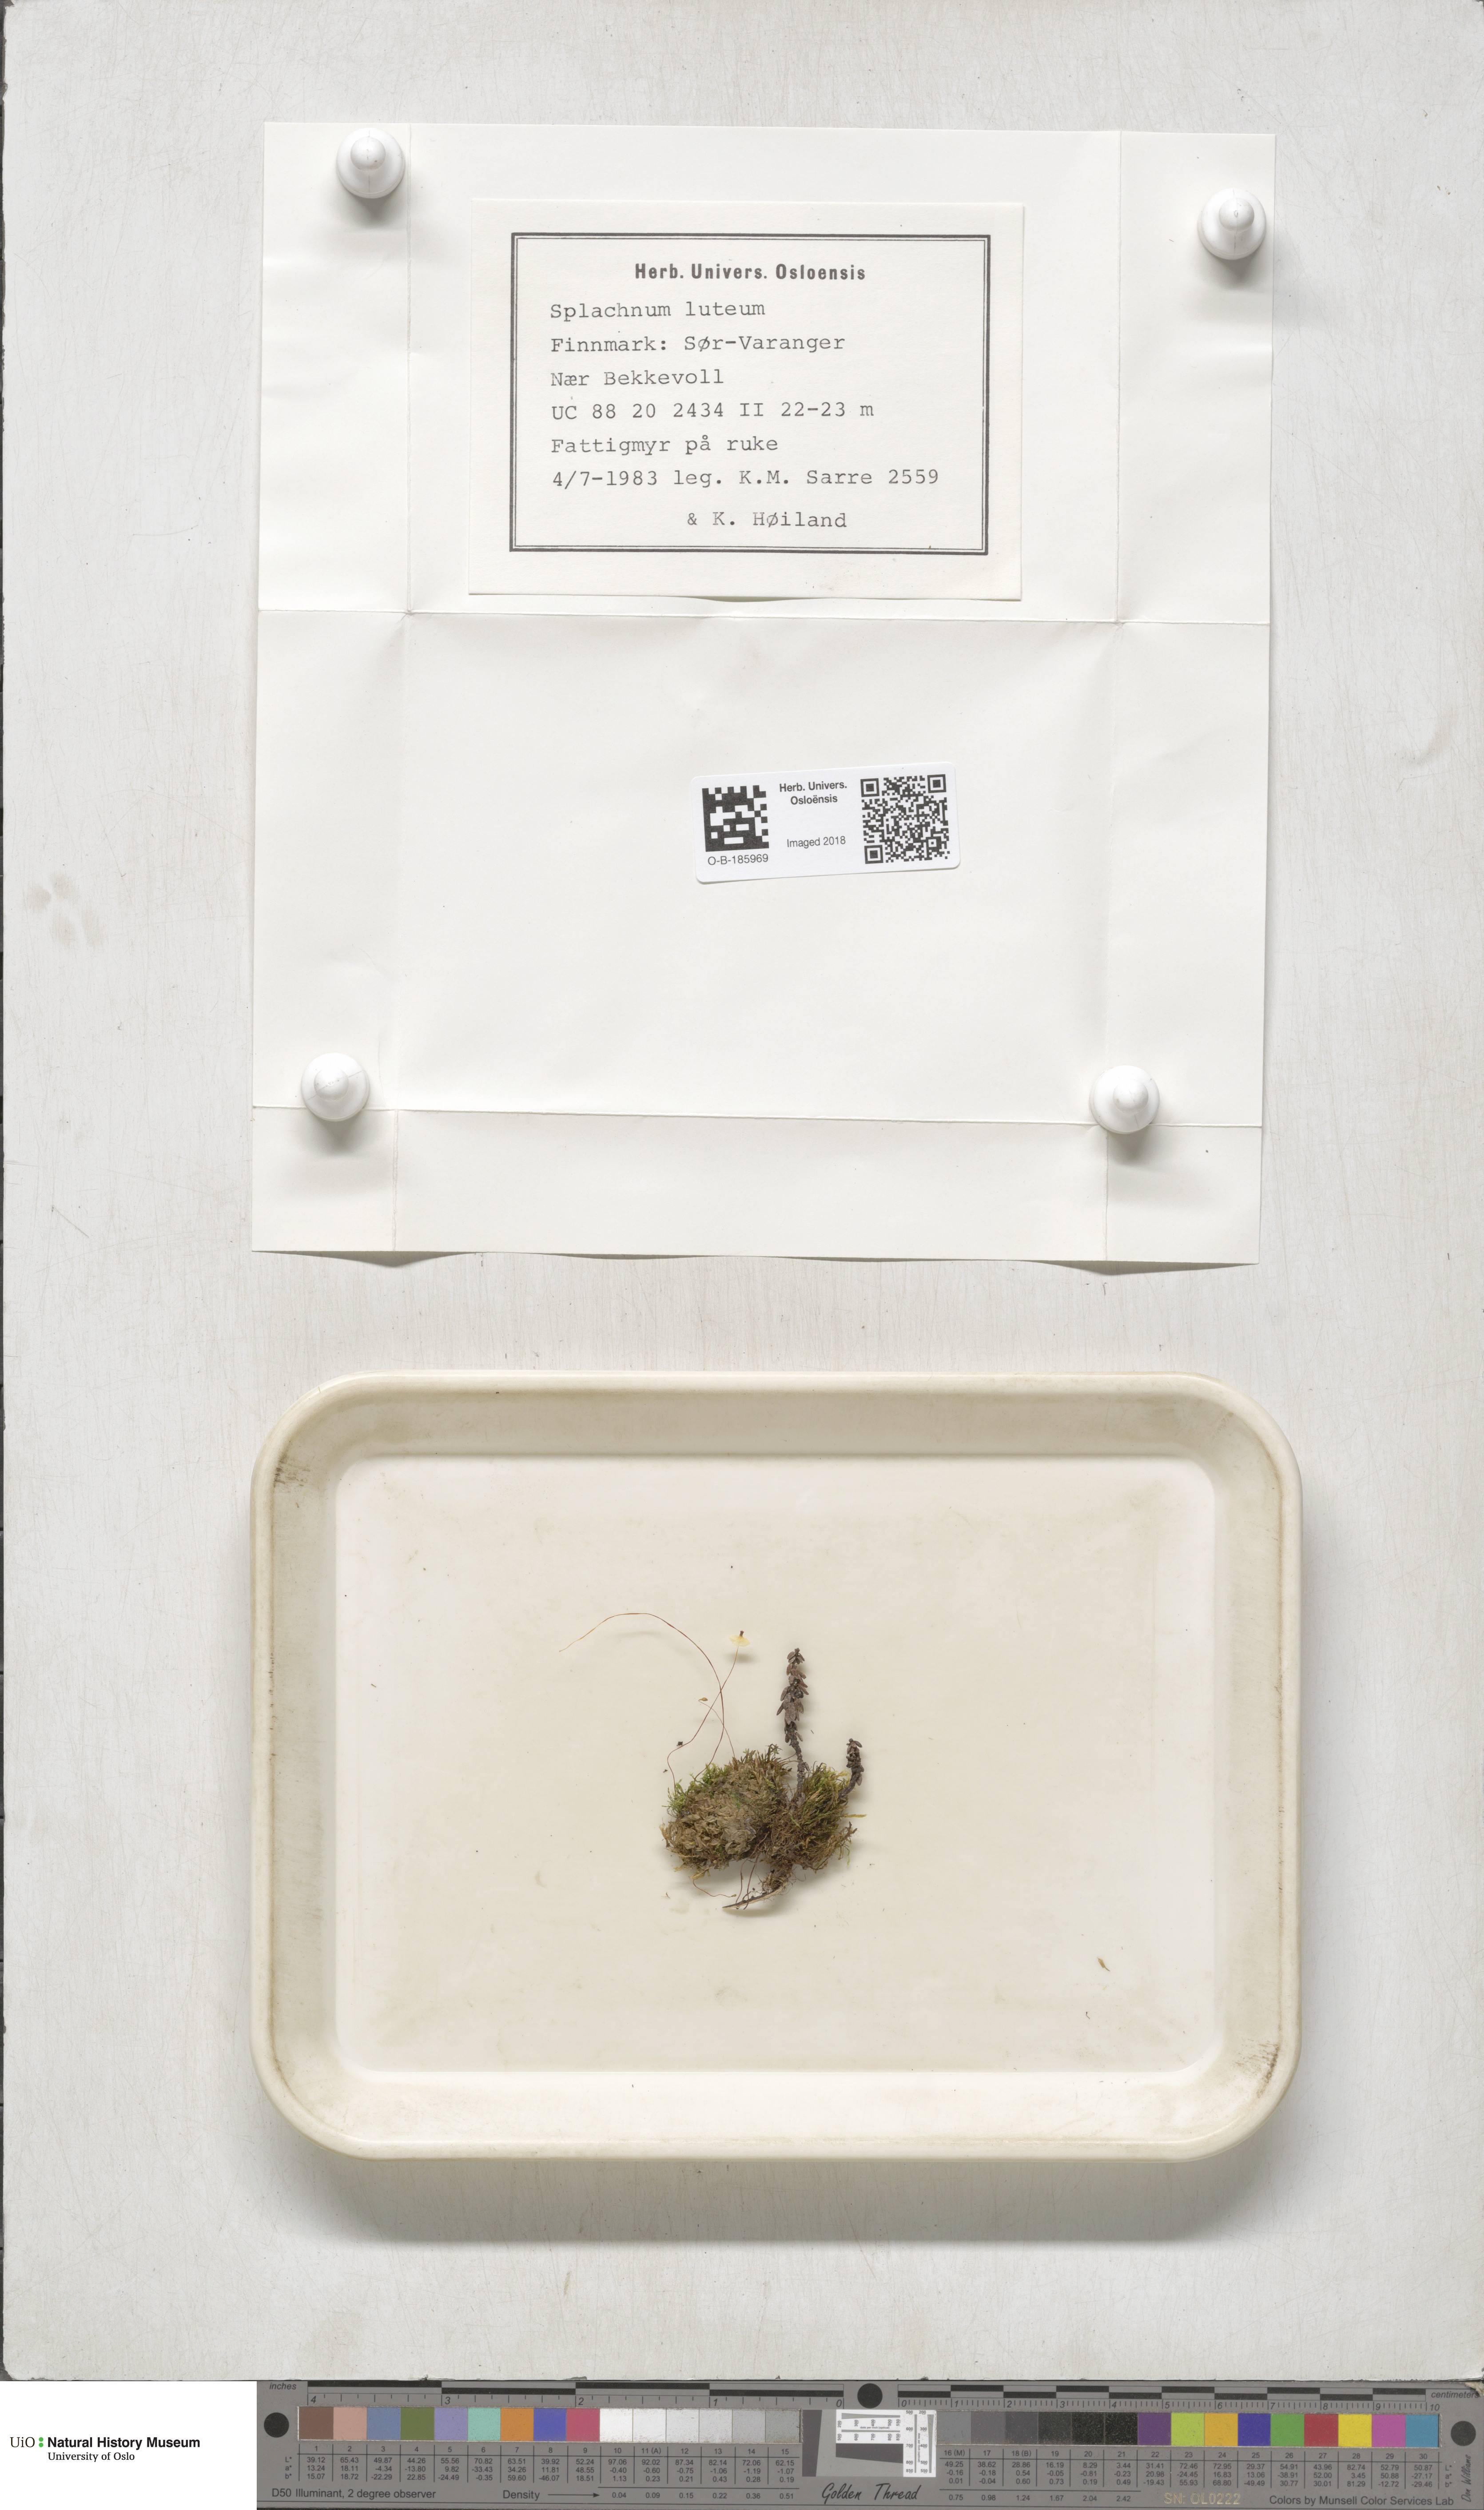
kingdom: Plantae
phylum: Bryophyta
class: Bryopsida
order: Splachnales
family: Splachnaceae
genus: Splachnum
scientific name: Splachnum luteum
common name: Yellow dung moss
